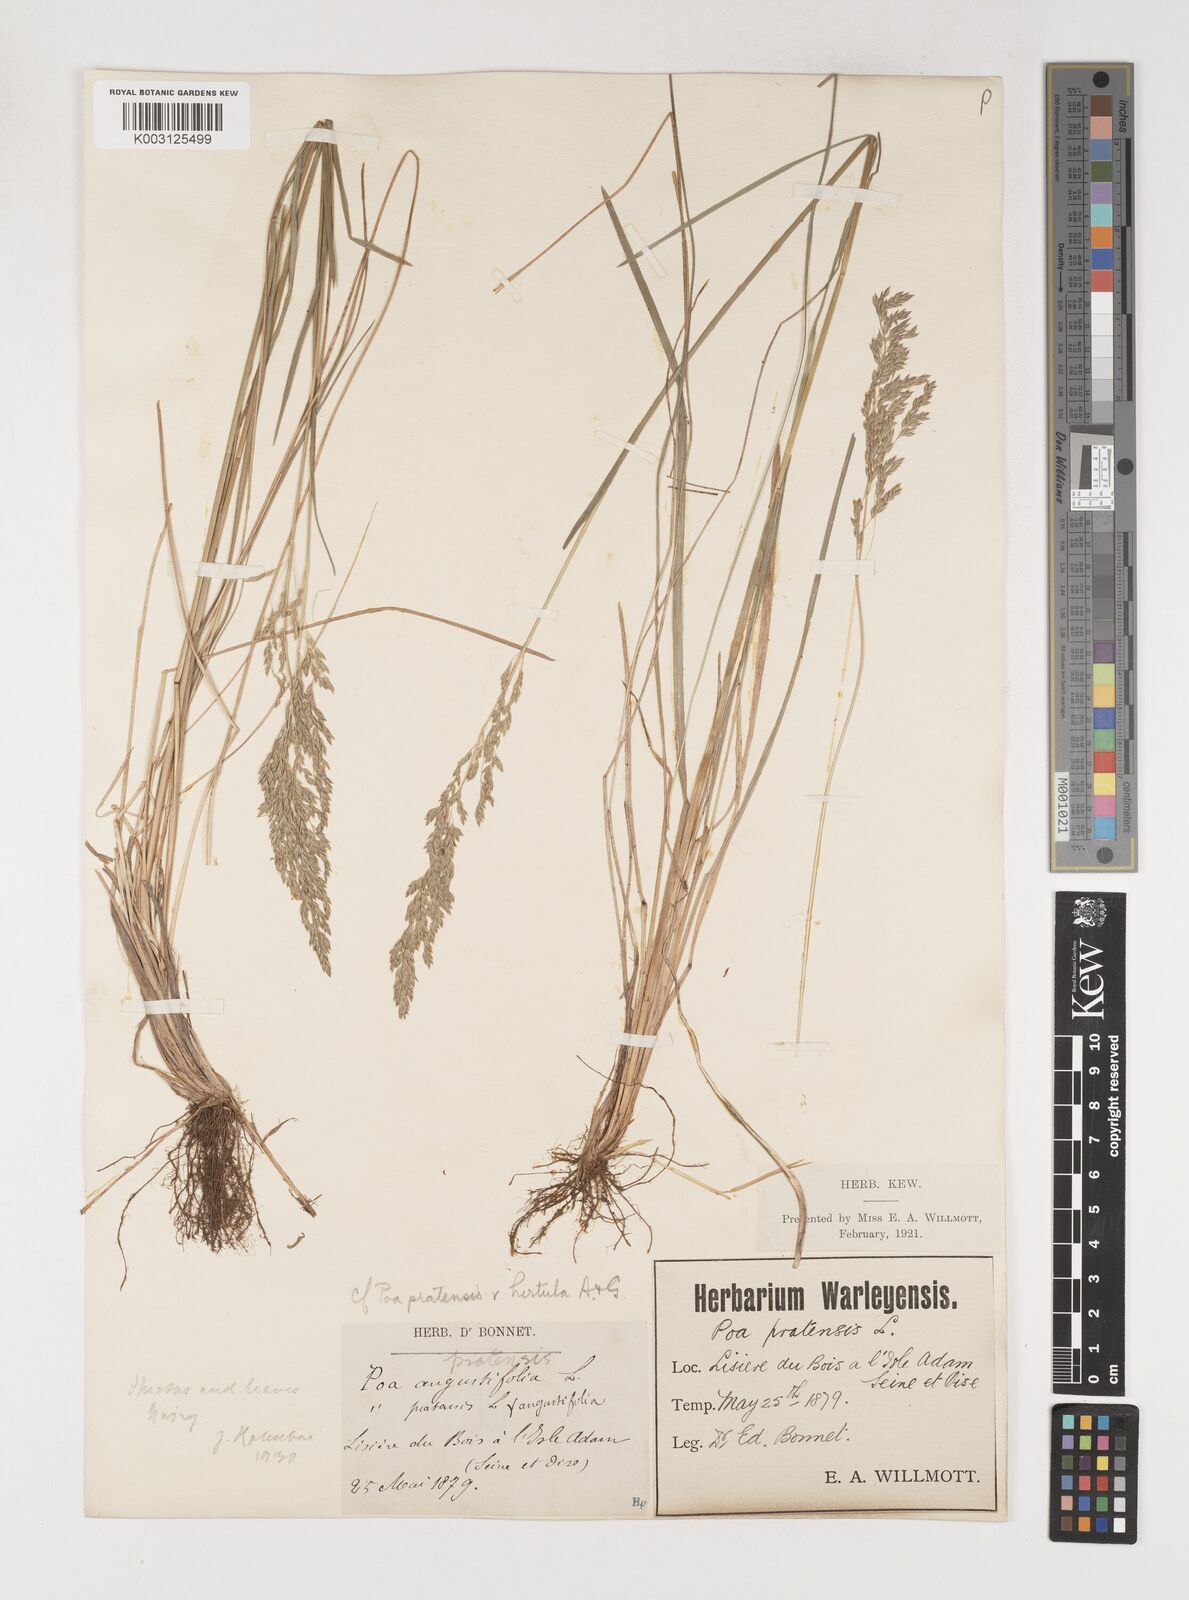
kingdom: Plantae
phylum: Tracheophyta
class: Liliopsida
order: Poales
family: Poaceae
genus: Poa
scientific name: Poa angustifolia
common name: Narrow-leaved meadow-grass
